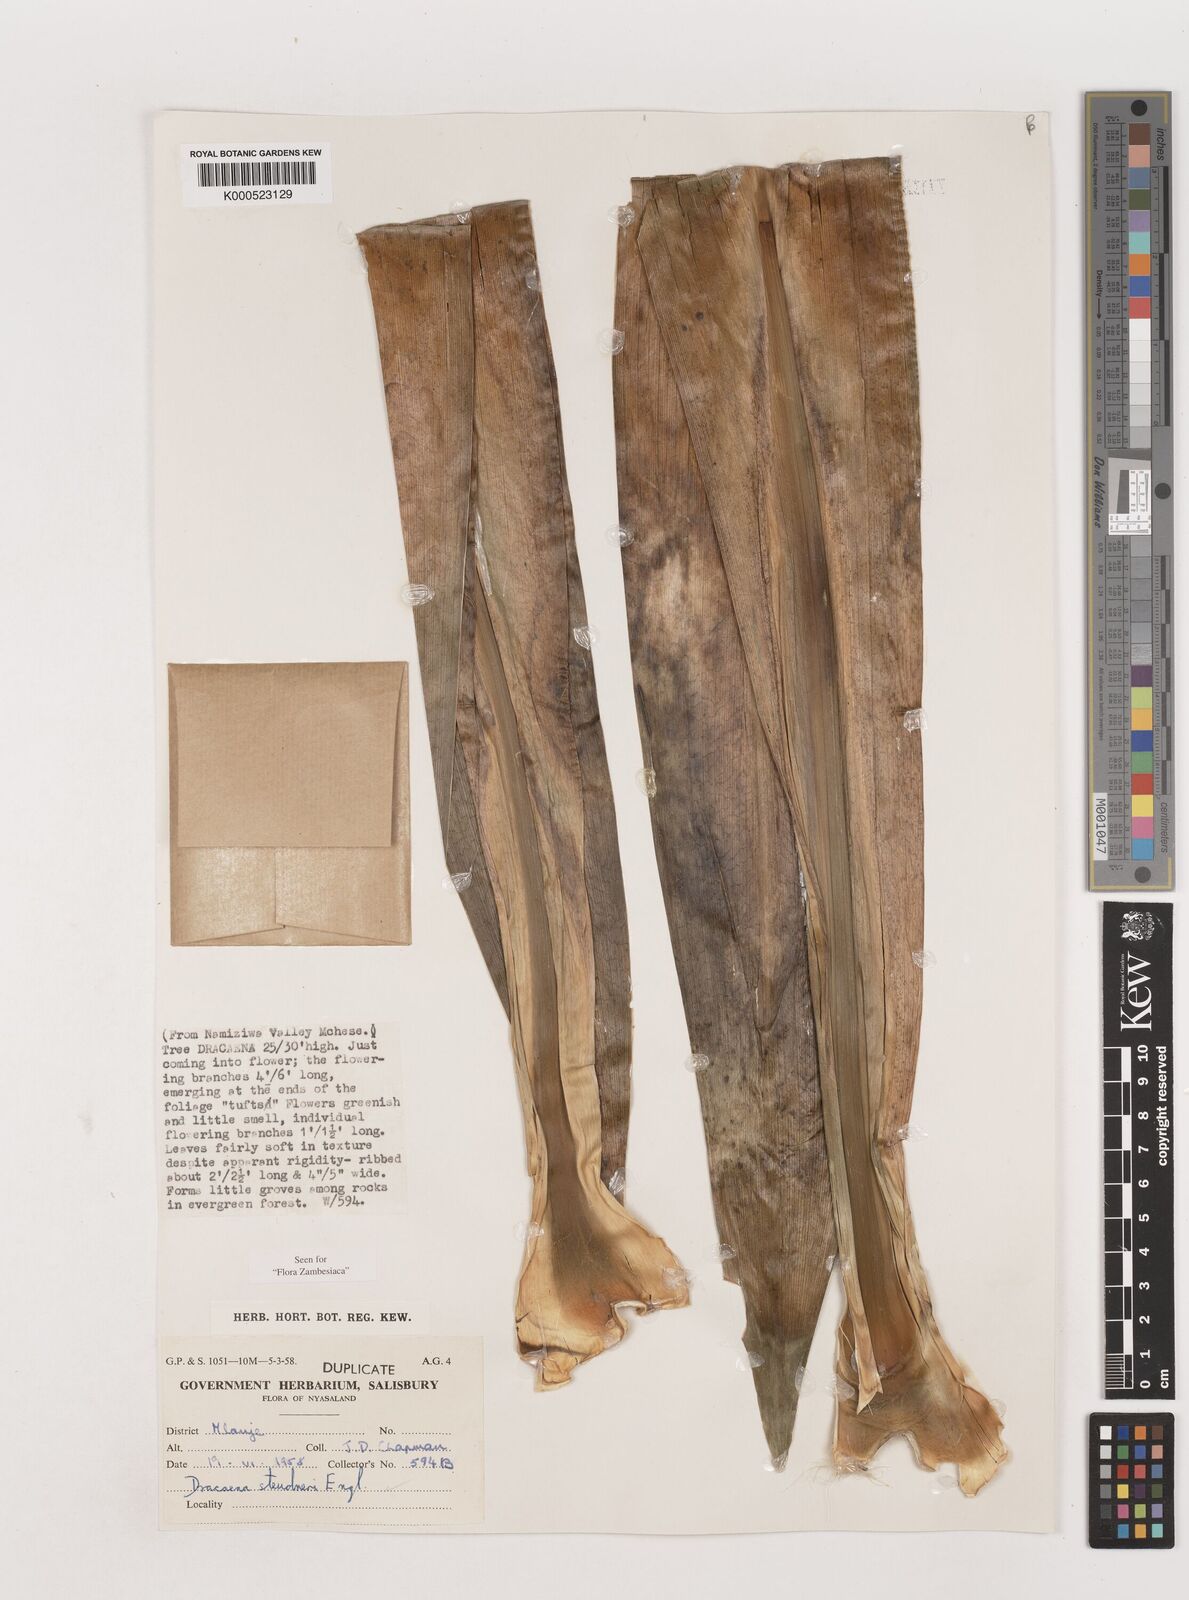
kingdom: Plantae
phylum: Tracheophyta
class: Liliopsida
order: Asparagales
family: Asparagaceae
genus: Dracaena
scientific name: Dracaena steudneri
